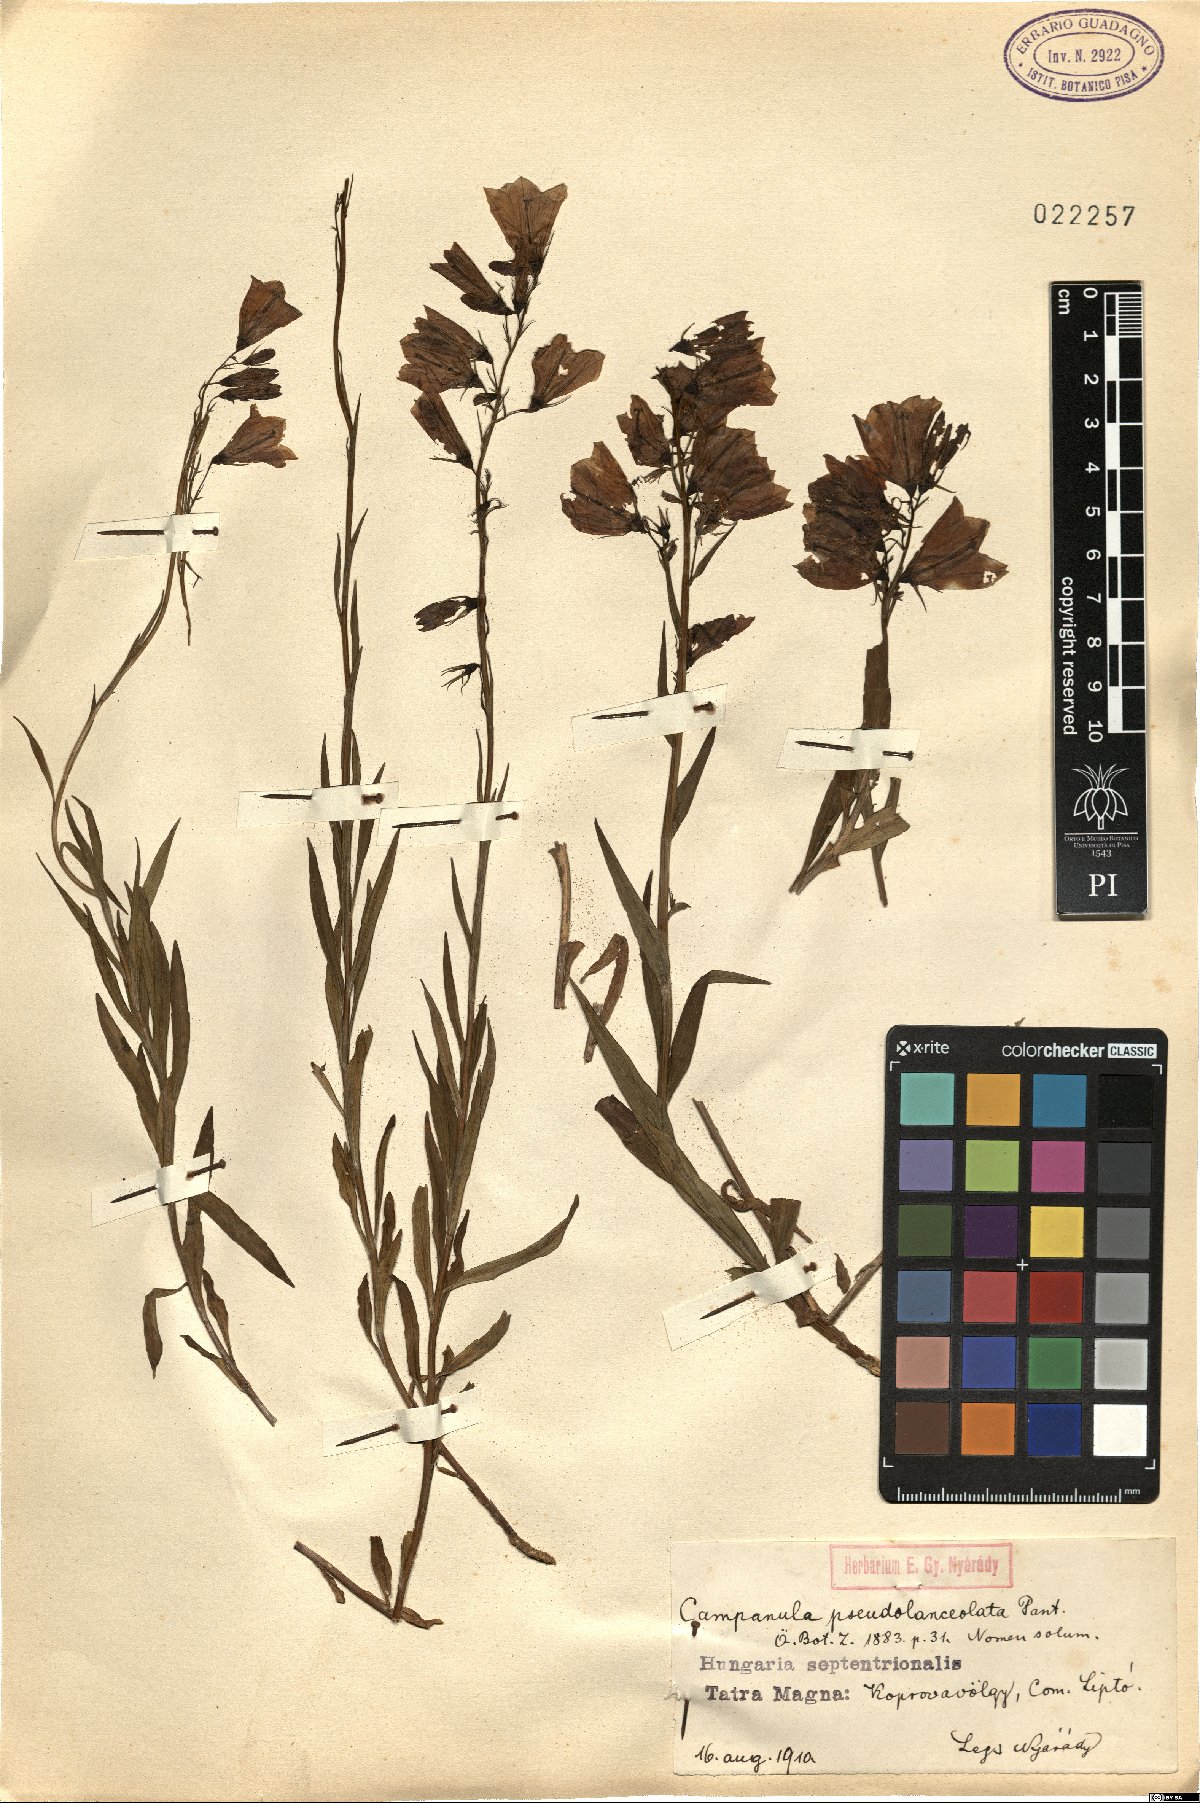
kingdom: Plantae
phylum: Tracheophyta
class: Magnoliopsida
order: Asterales
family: Campanulaceae
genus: Campanula
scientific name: Campanula serrata
